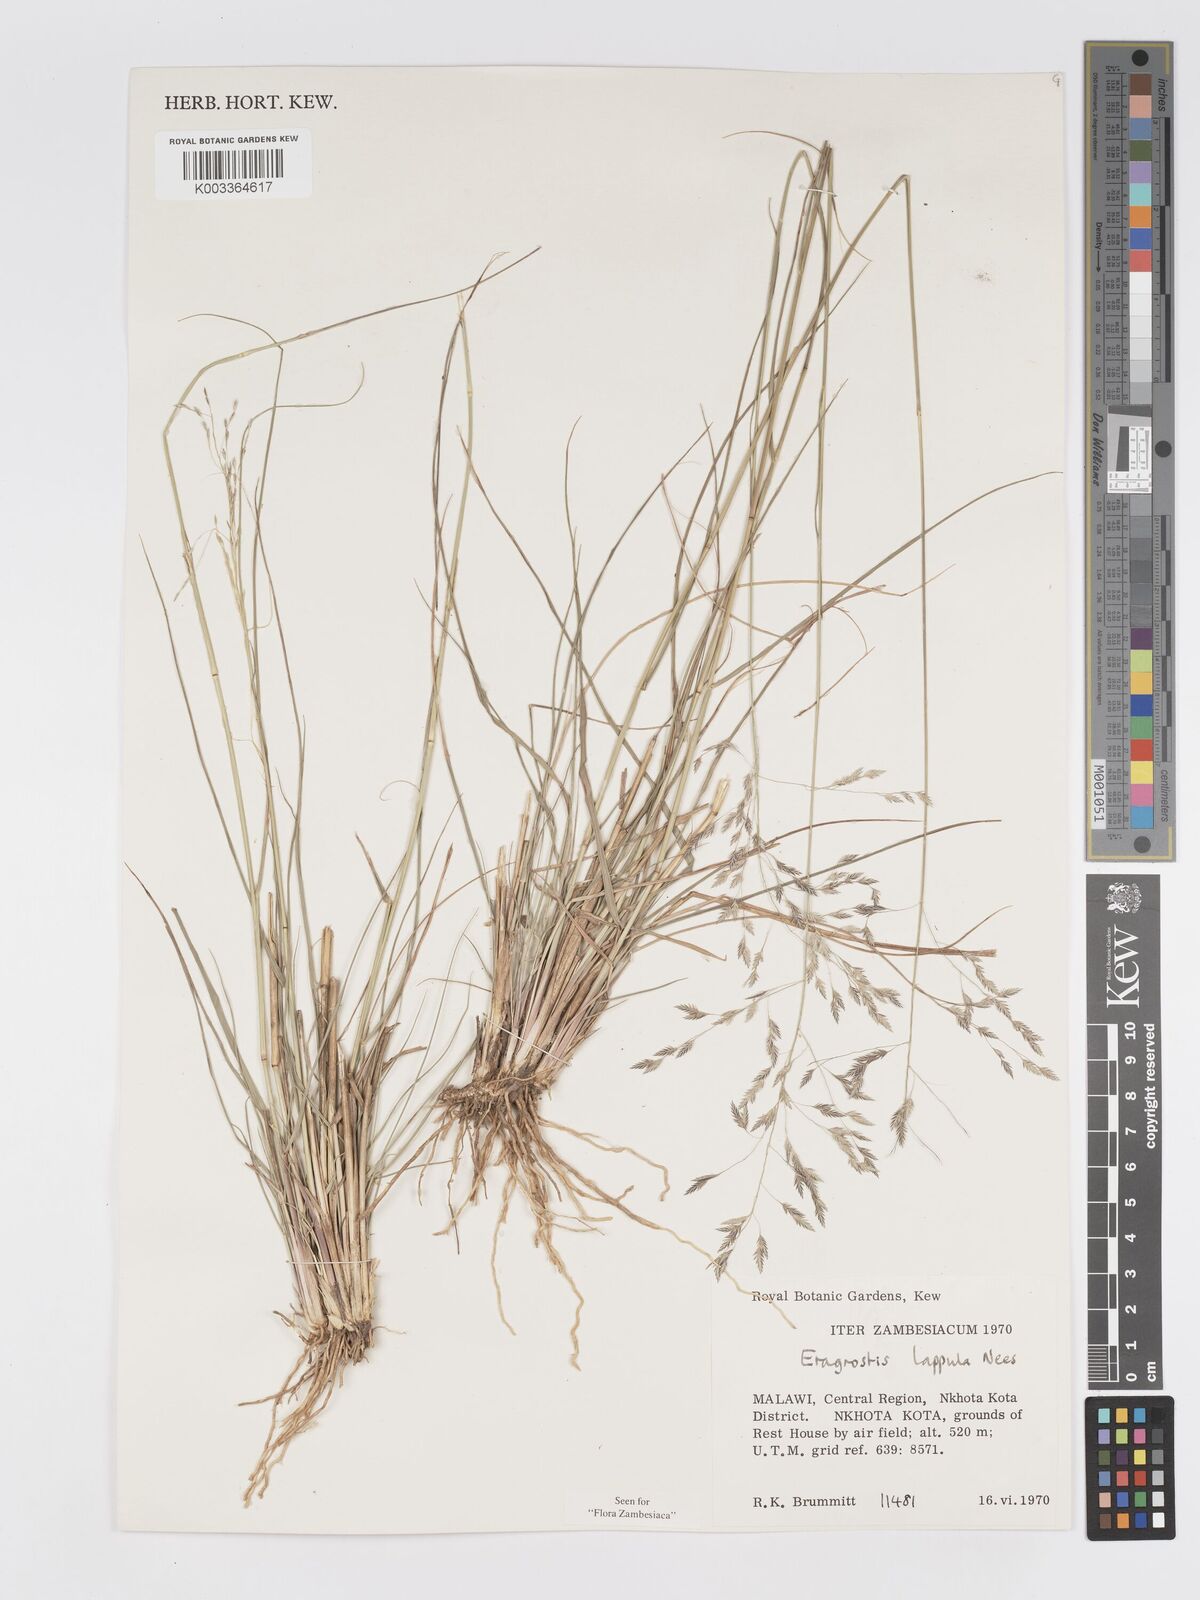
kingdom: Plantae
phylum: Tracheophyta
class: Liliopsida
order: Poales
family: Poaceae
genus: Eragrostis
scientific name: Eragrostis lappula
